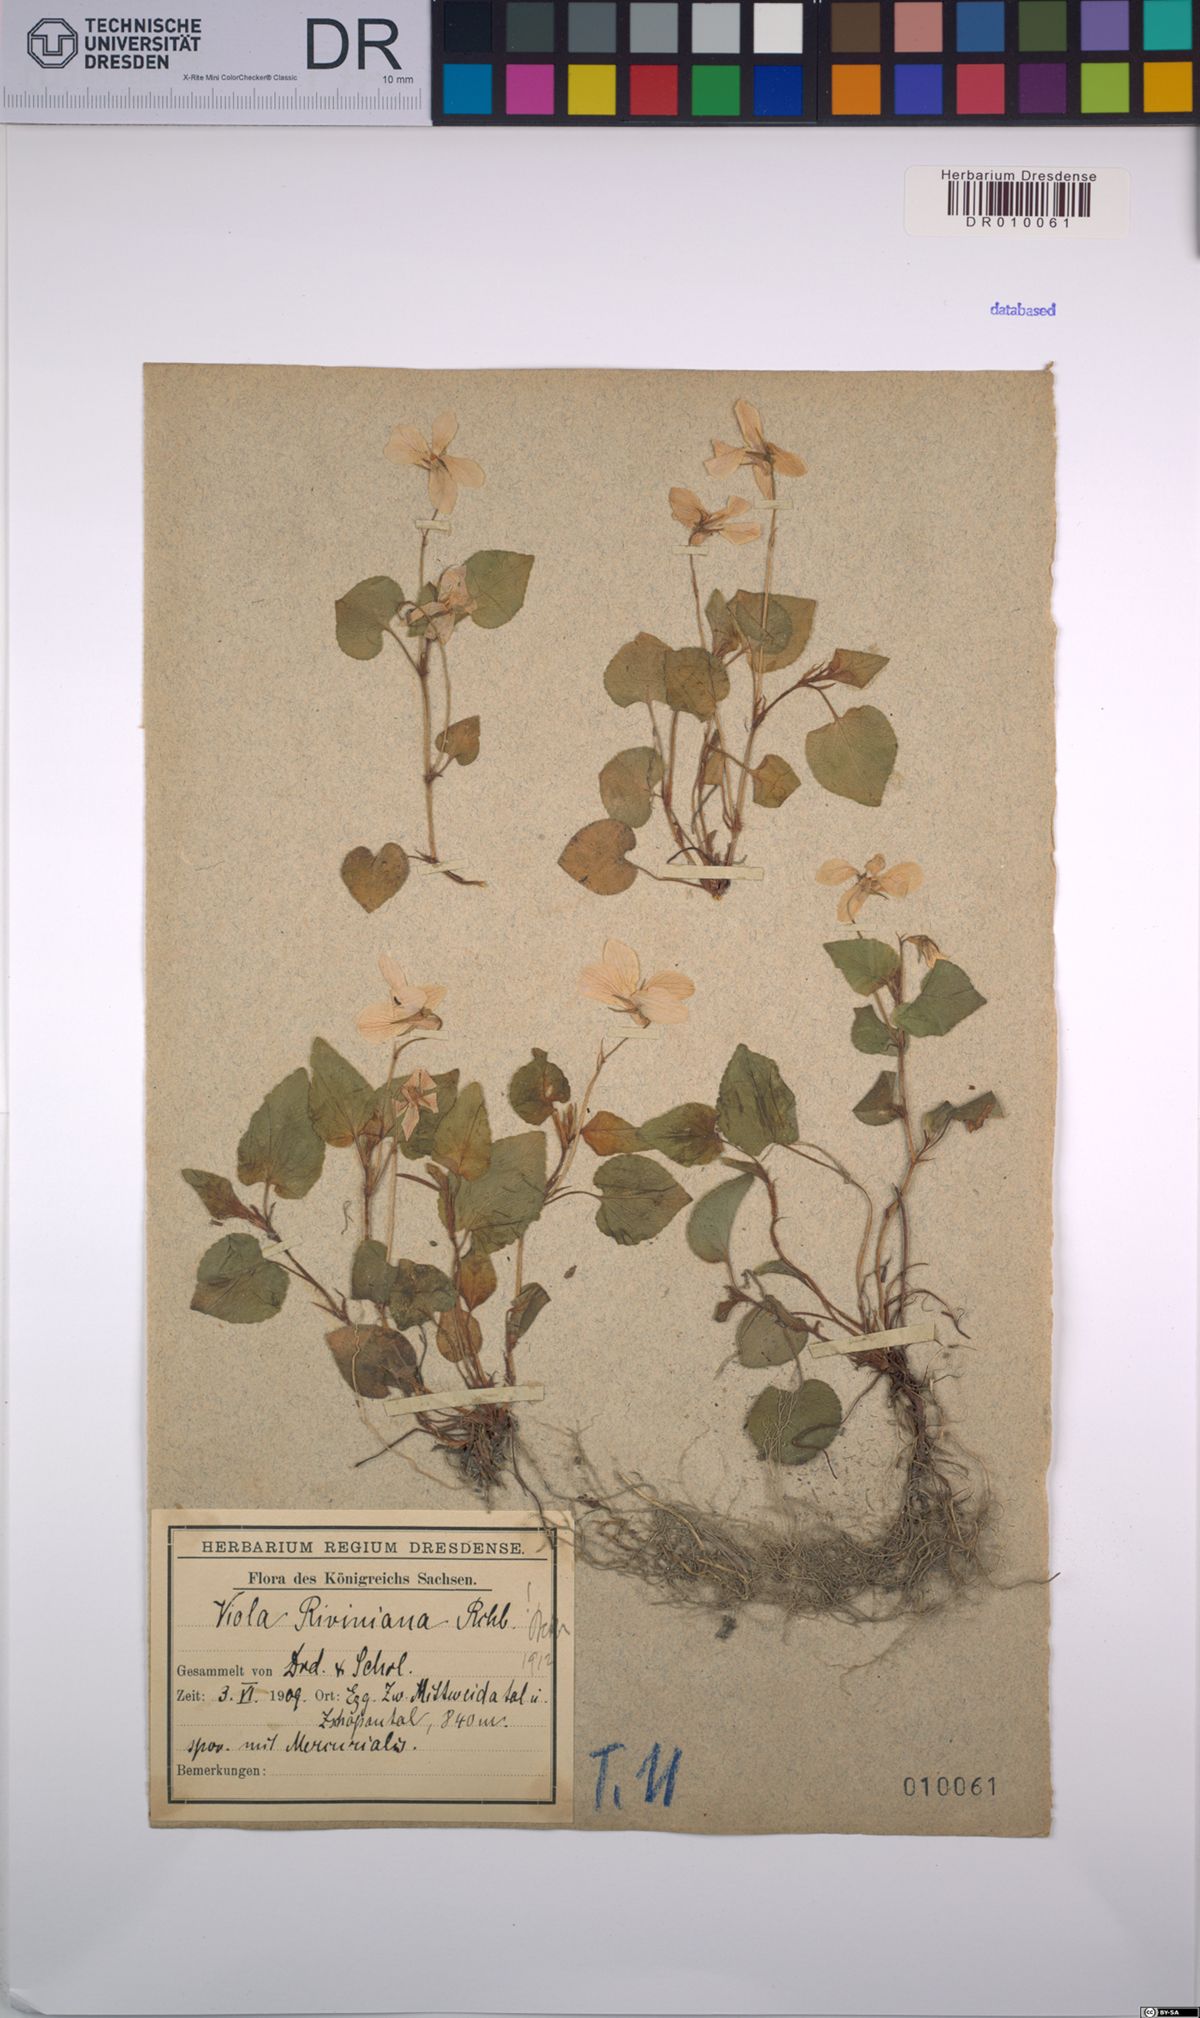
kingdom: Plantae
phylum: Tracheophyta
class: Magnoliopsida
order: Malpighiales
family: Violaceae
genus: Viola
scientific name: Viola riviniana
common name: Common dog-violet
